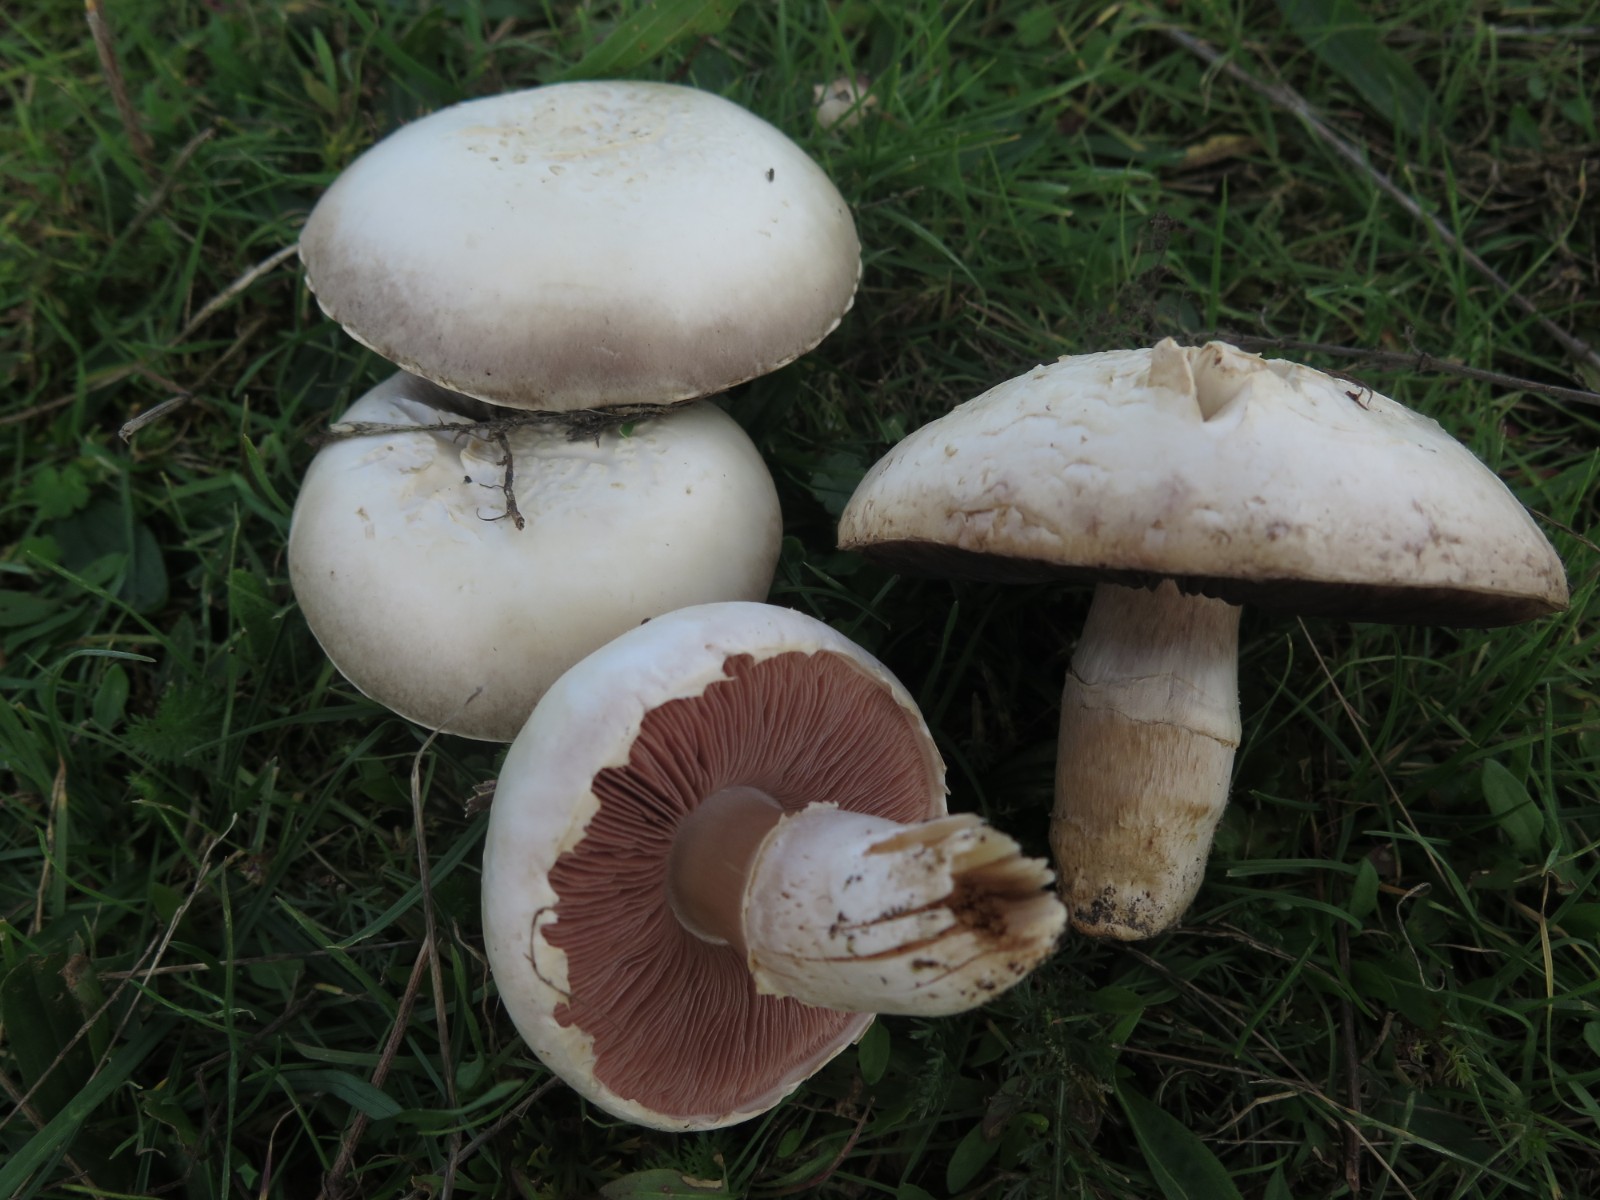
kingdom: Fungi
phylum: Basidiomycota
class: Agaricomycetes
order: Agaricales
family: Agaricaceae
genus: Agaricus
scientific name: Agaricus campestris
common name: mark-champignon
